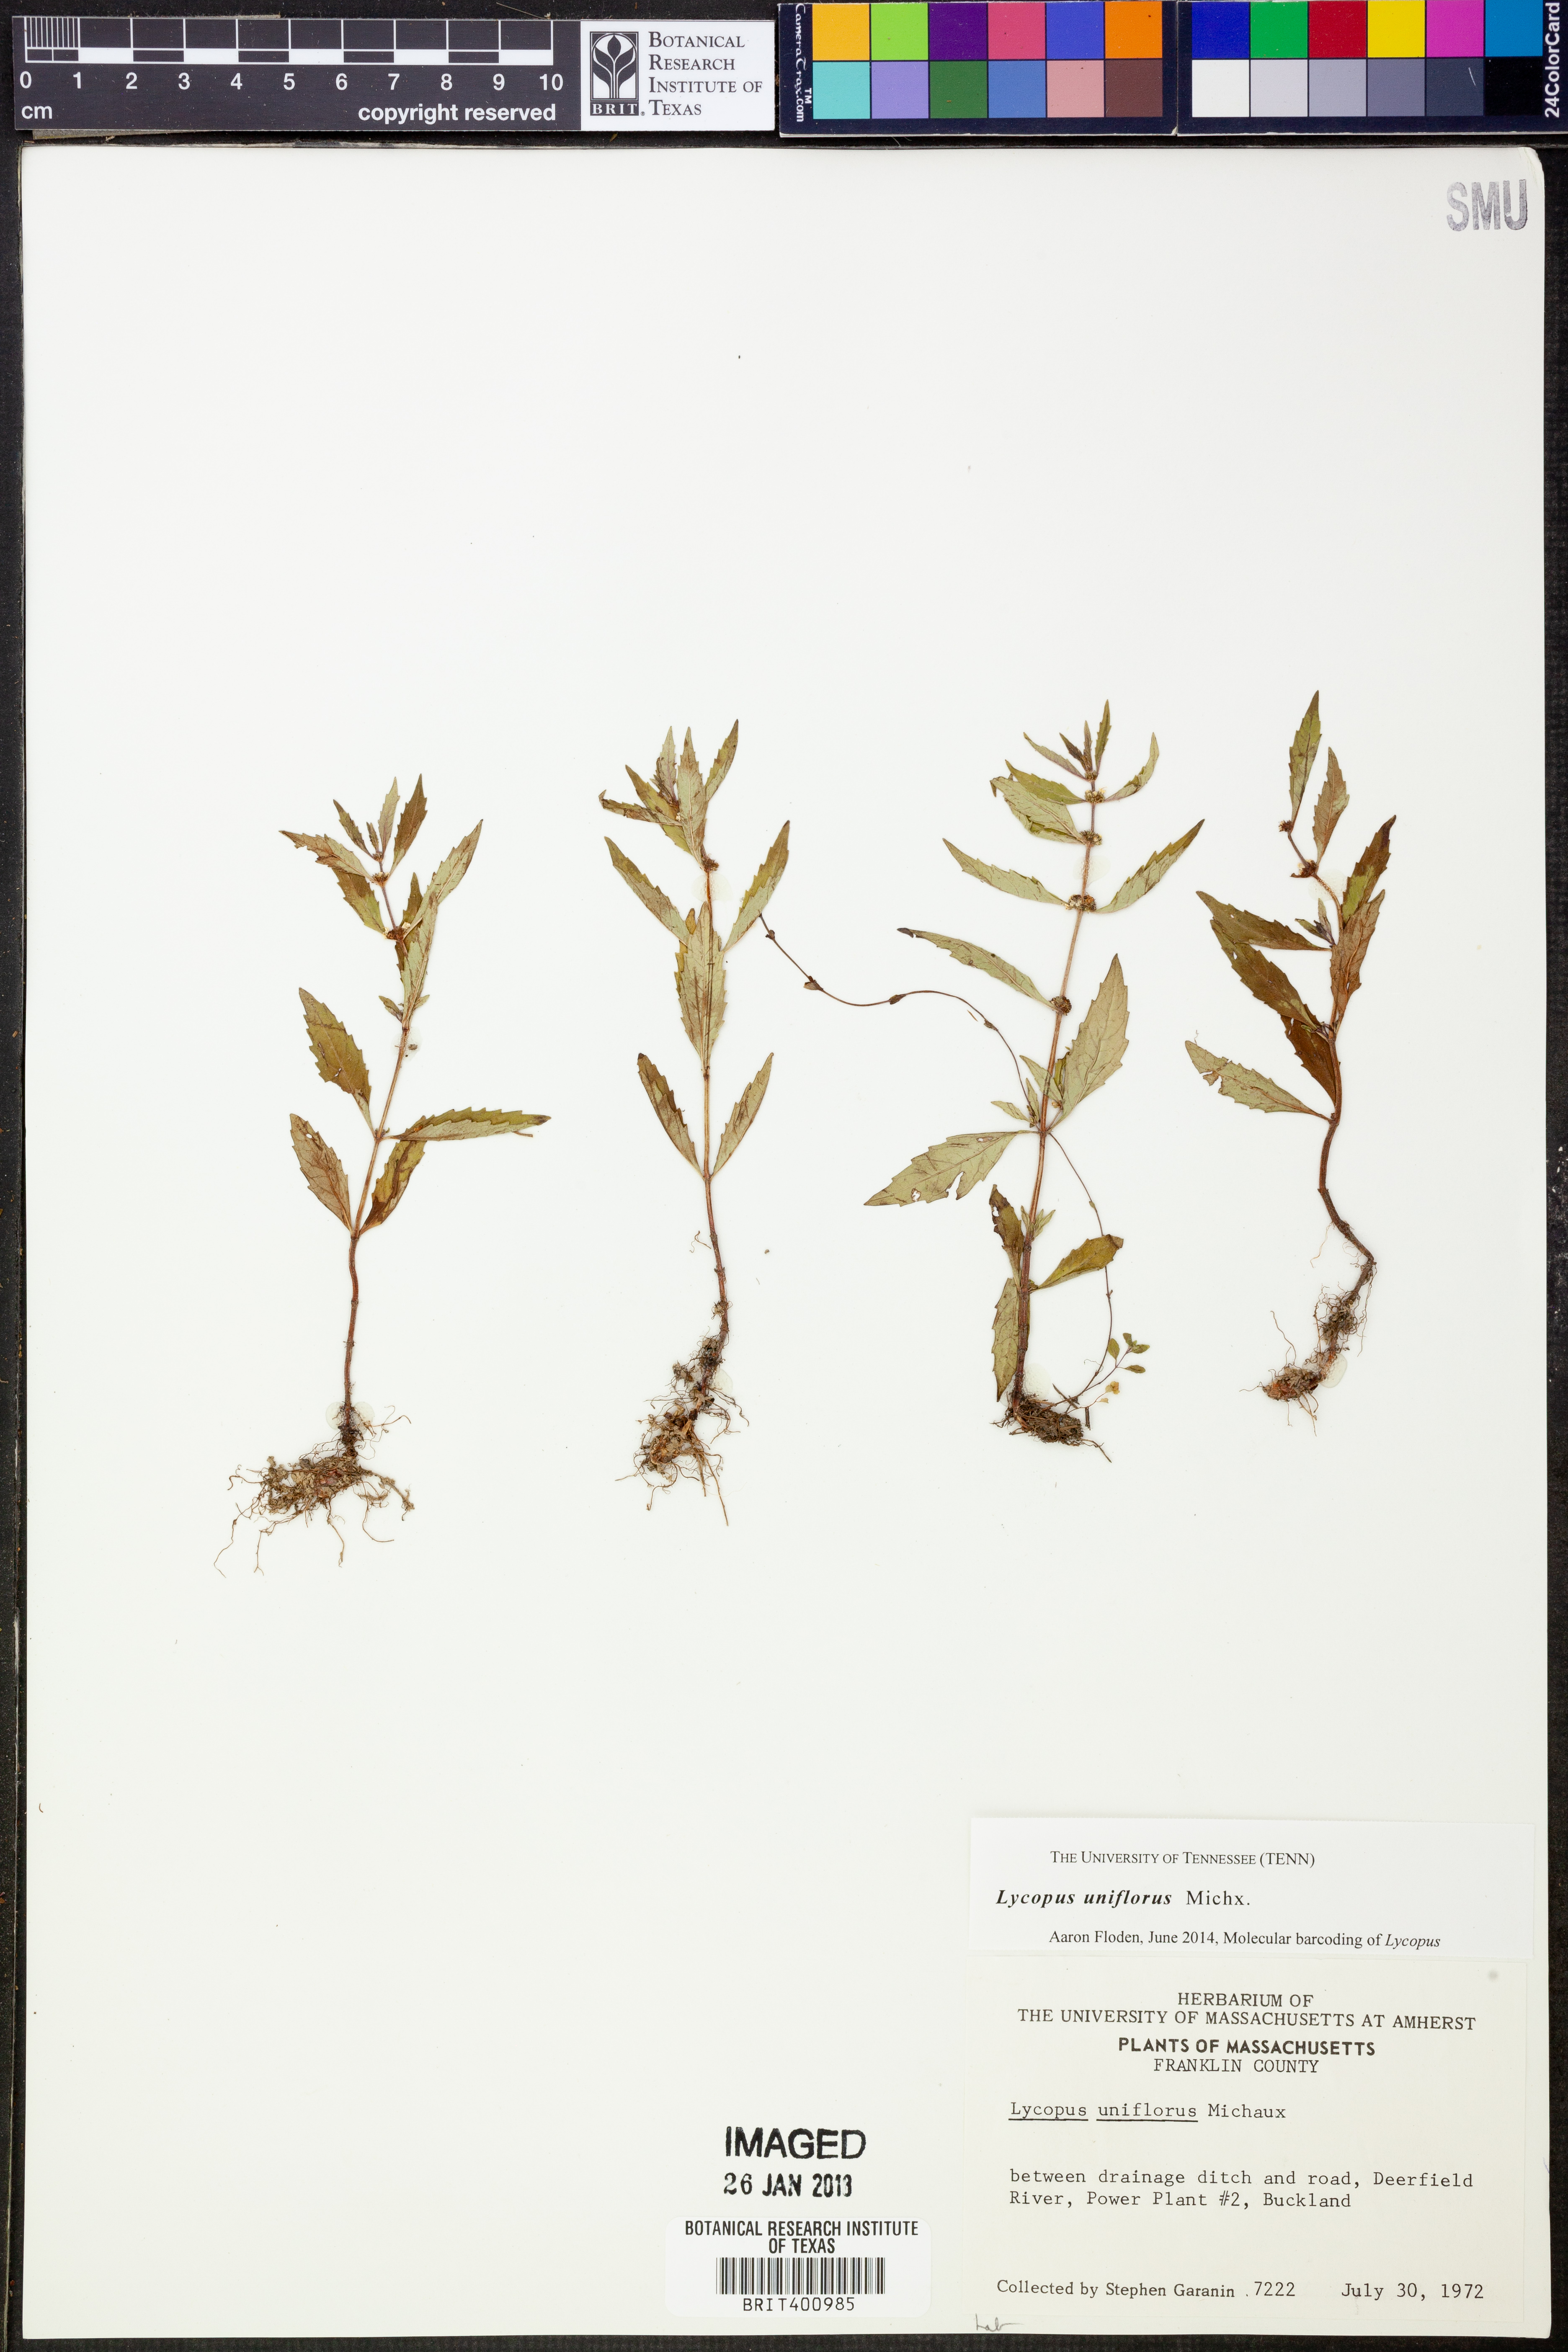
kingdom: Plantae
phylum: Tracheophyta
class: Magnoliopsida
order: Lamiales
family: Lamiaceae
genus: Lycopus
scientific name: Lycopus uniflorus
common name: Northern bugleweed
